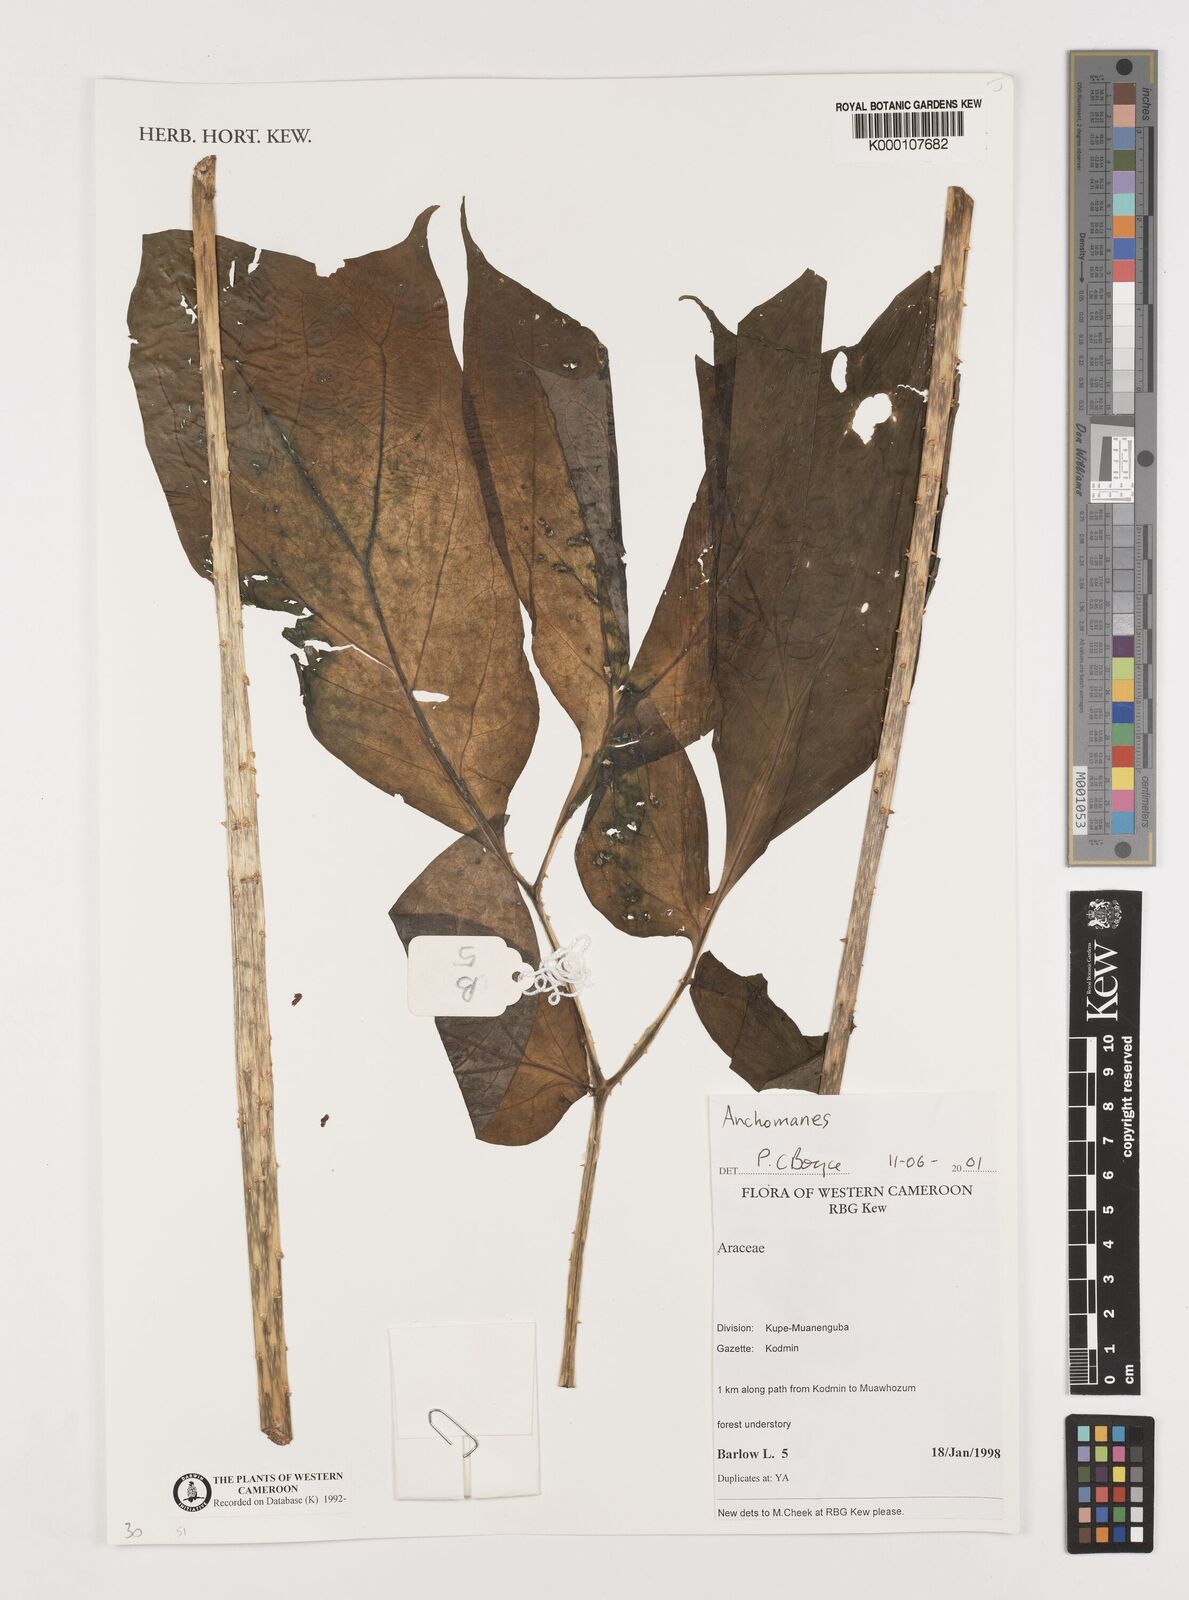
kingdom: Plantae
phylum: Tracheophyta
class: Liliopsida
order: Alismatales
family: Araceae
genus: Anchomanes
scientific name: Anchomanes
